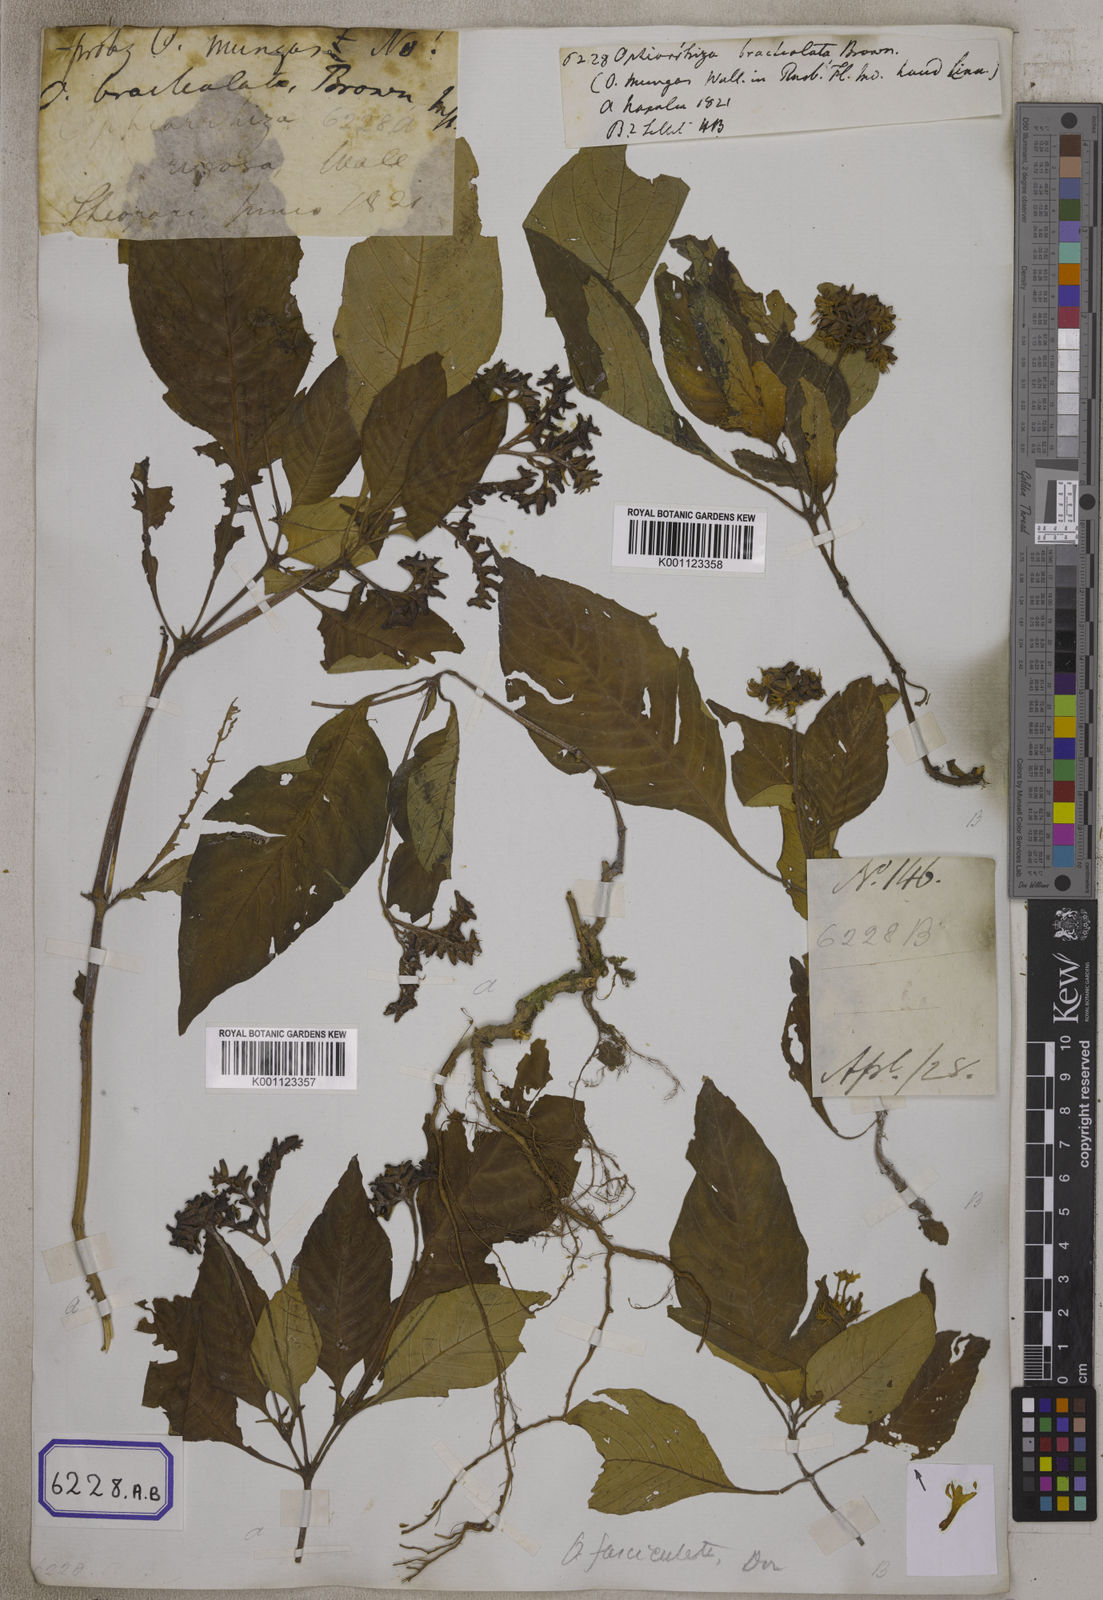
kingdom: Plantae
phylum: Tracheophyta
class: Magnoliopsida
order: Gentianales
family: Rubiaceae
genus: Ophiorrhiza
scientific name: Ophiorrhiza
